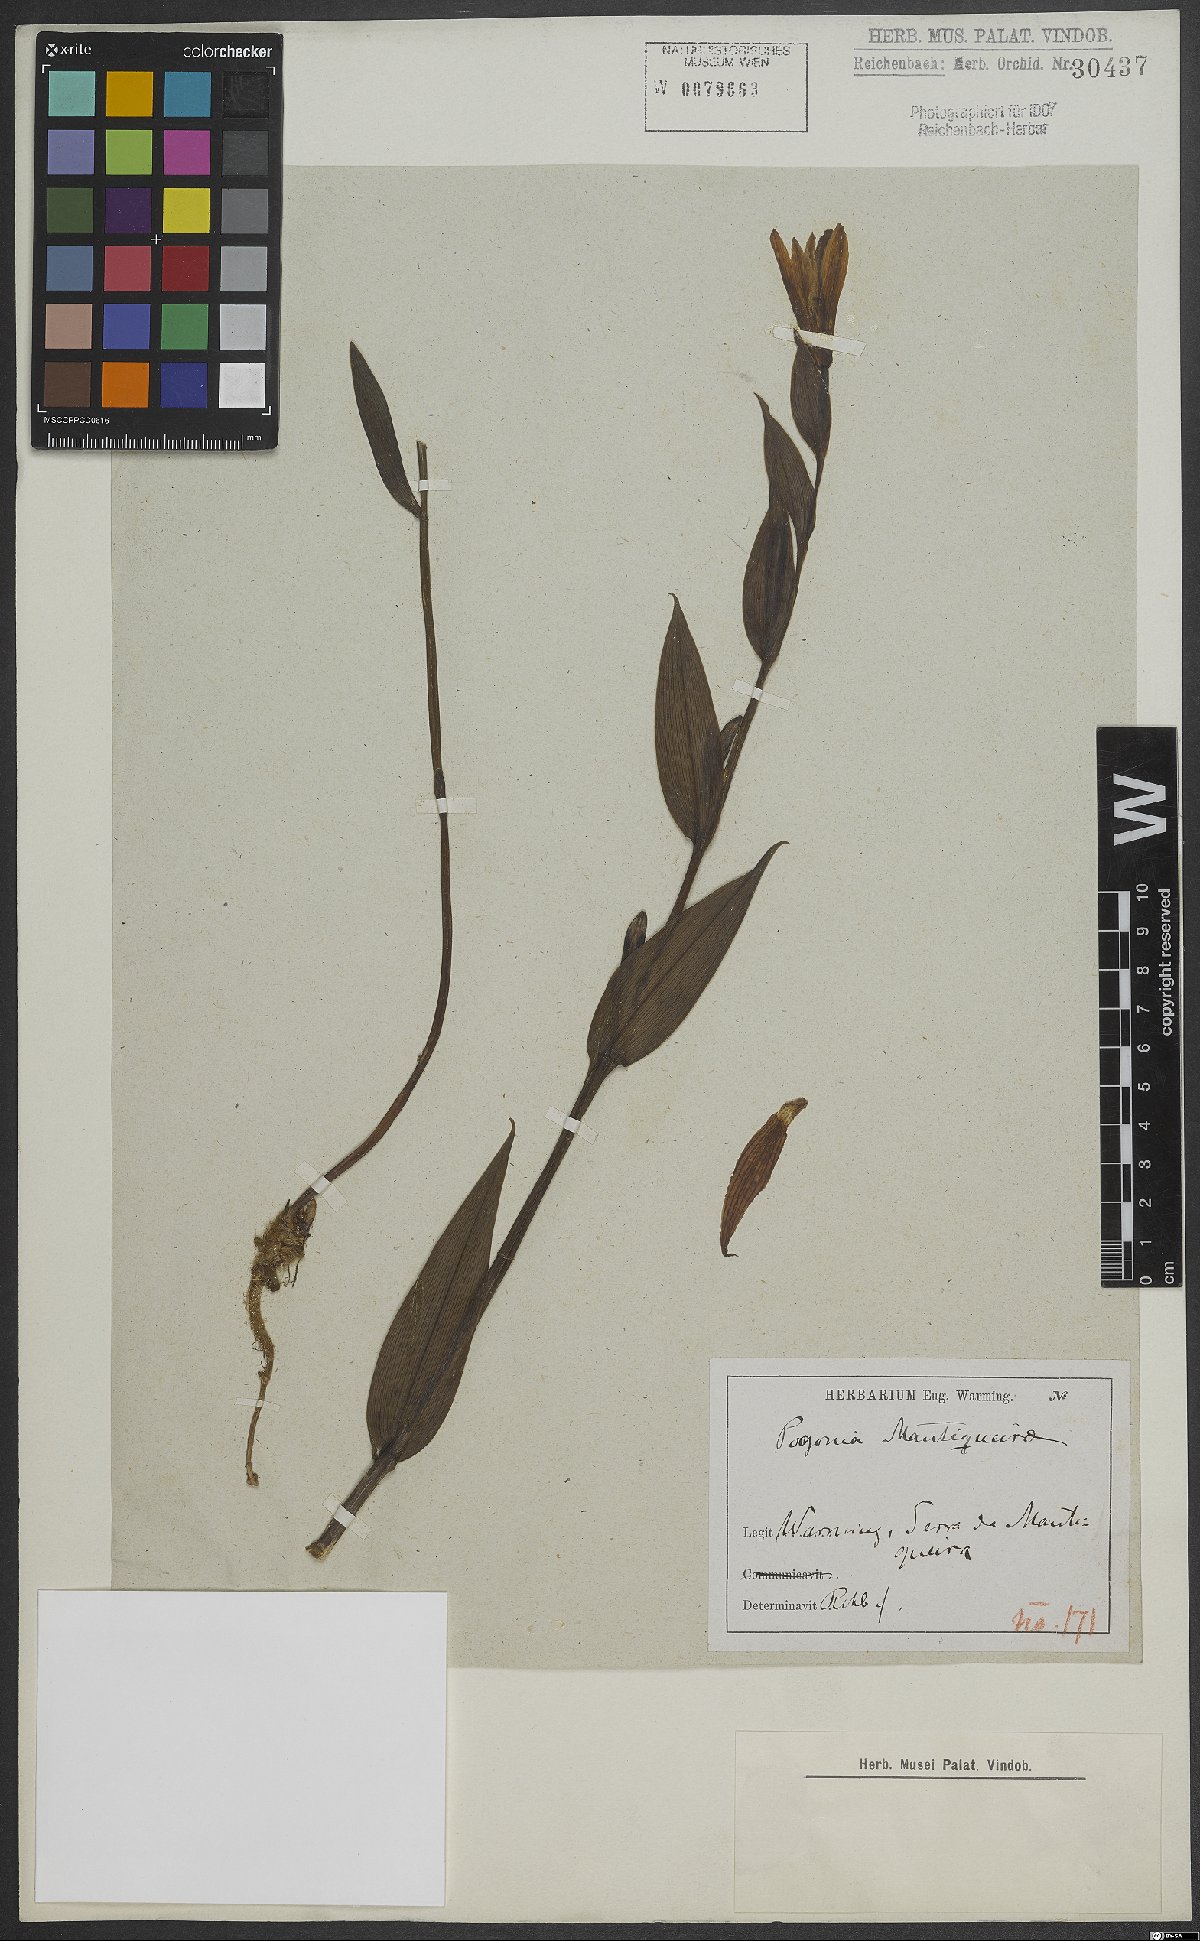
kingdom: Plantae
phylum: Tracheophyta
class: Liliopsida
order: Asparagales
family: Orchidaceae
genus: Cleistes
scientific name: Cleistes mantiqueirae
